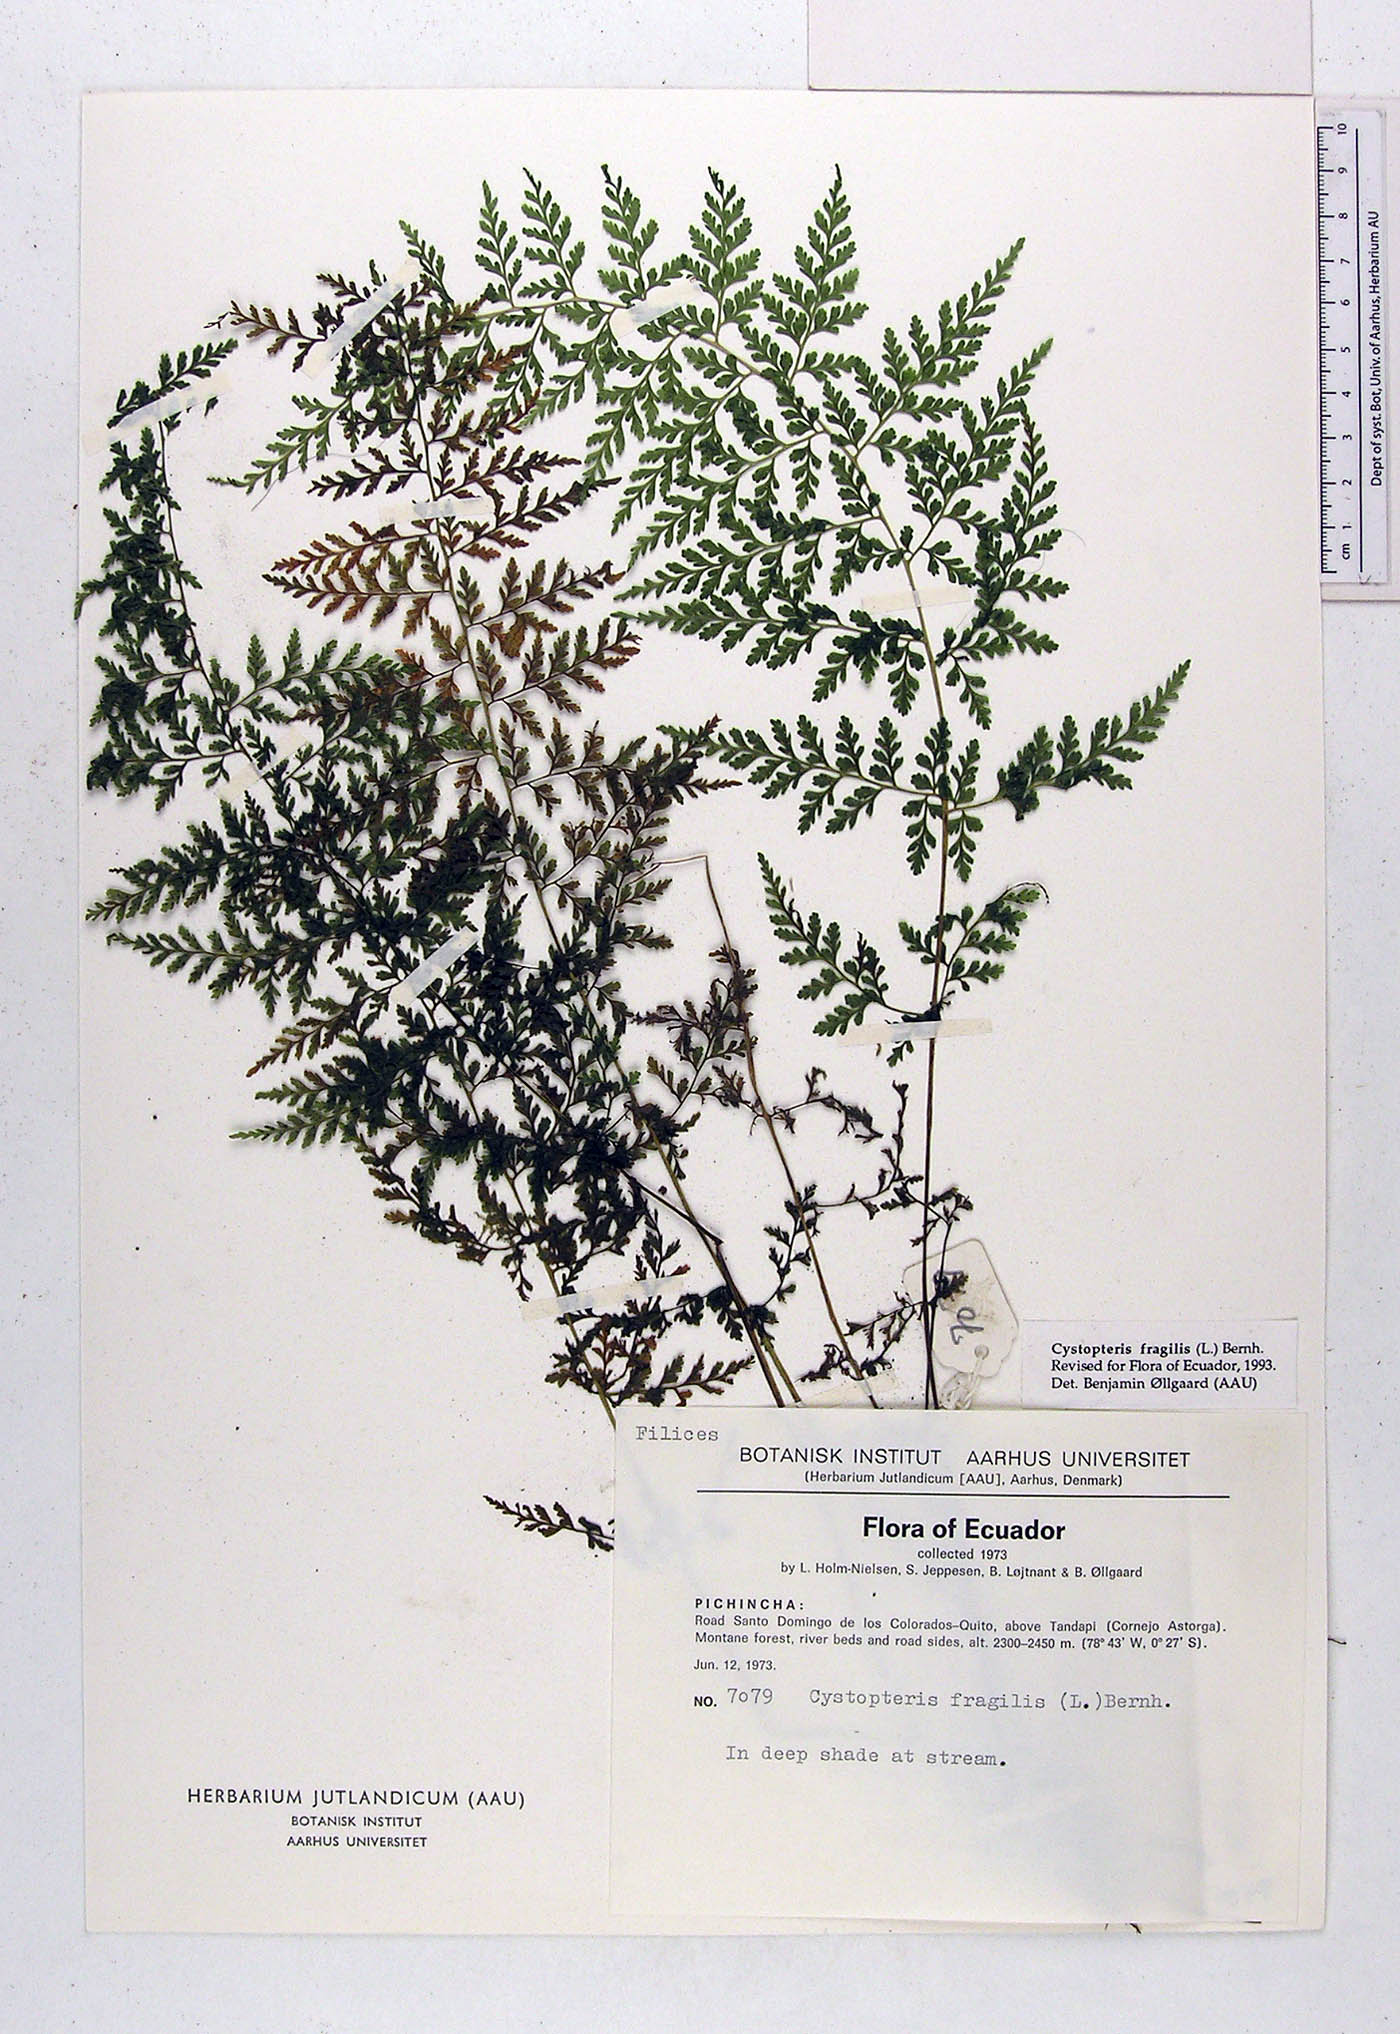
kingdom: Plantae
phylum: Tracheophyta
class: Polypodiopsida
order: Polypodiales
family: Cystopteridaceae
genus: Cystopteris
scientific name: Cystopteris fragilis
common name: Brittle bladder fern
